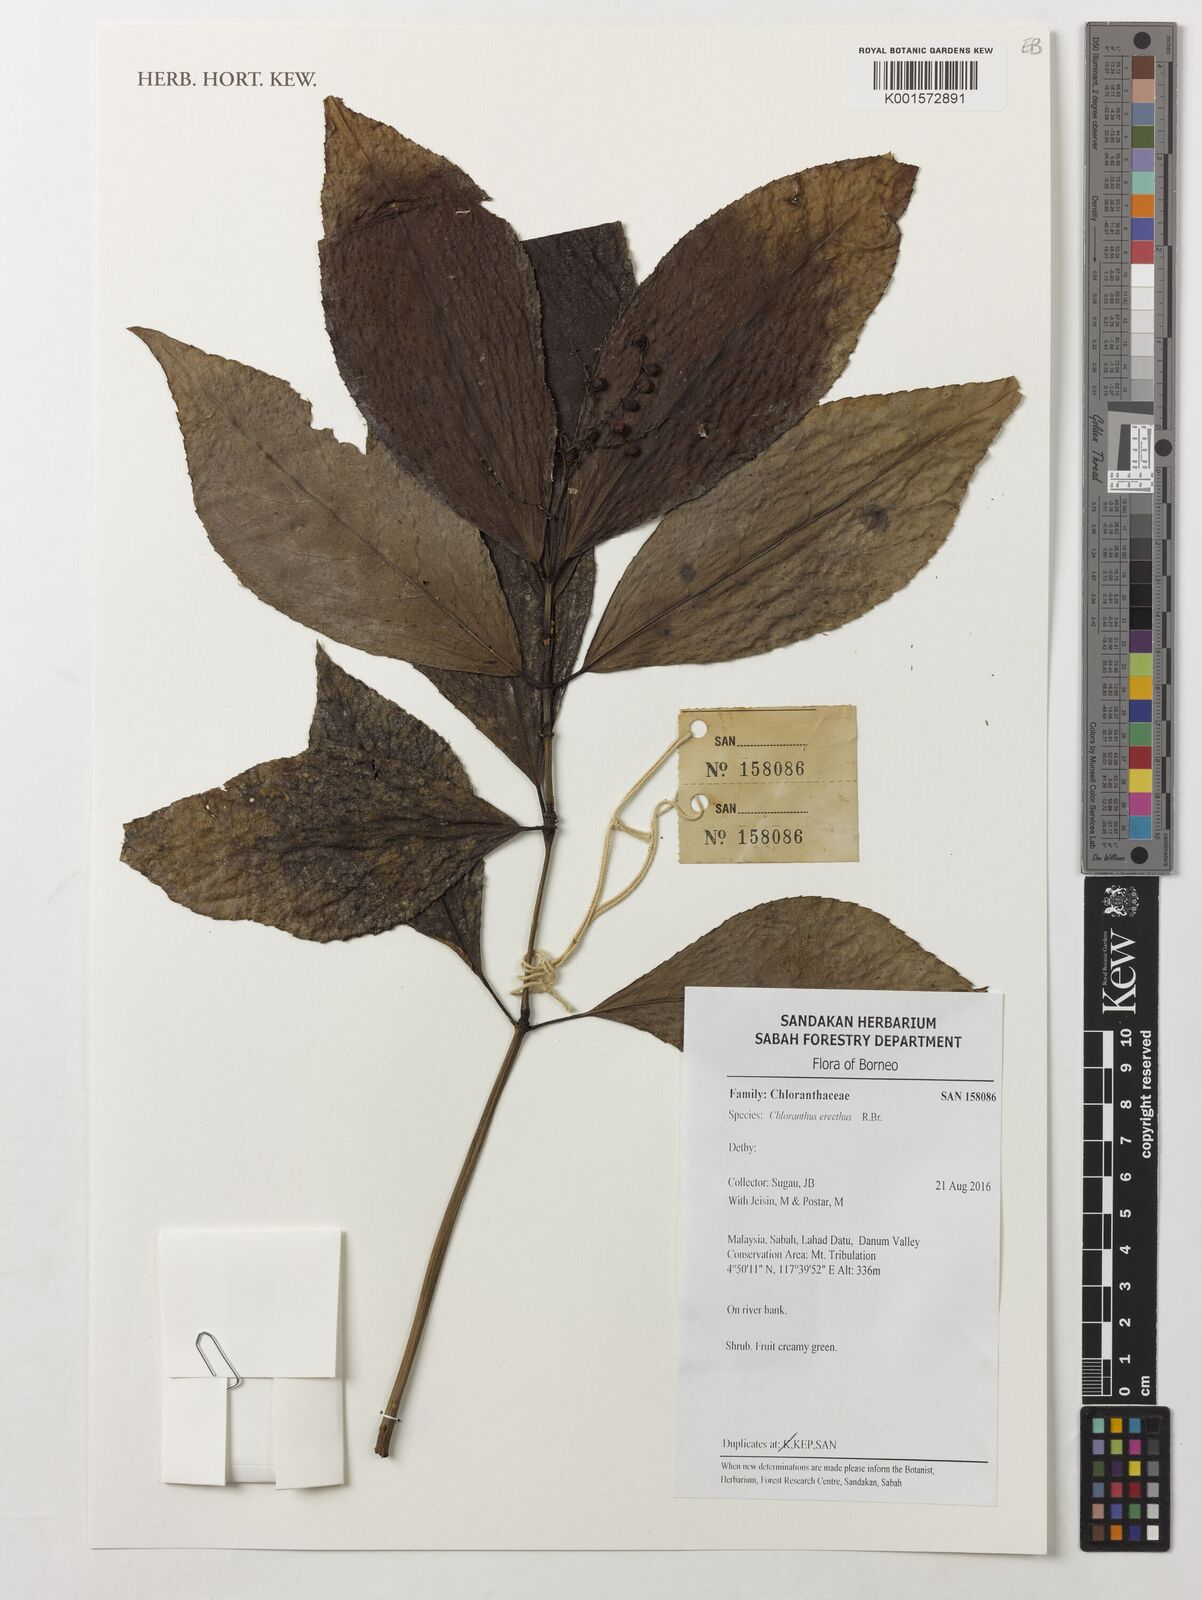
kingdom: Plantae
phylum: Tracheophyta
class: Magnoliopsida
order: Chloranthales
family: Chloranthaceae
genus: Chloranthus
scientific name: Chloranthus elatior
